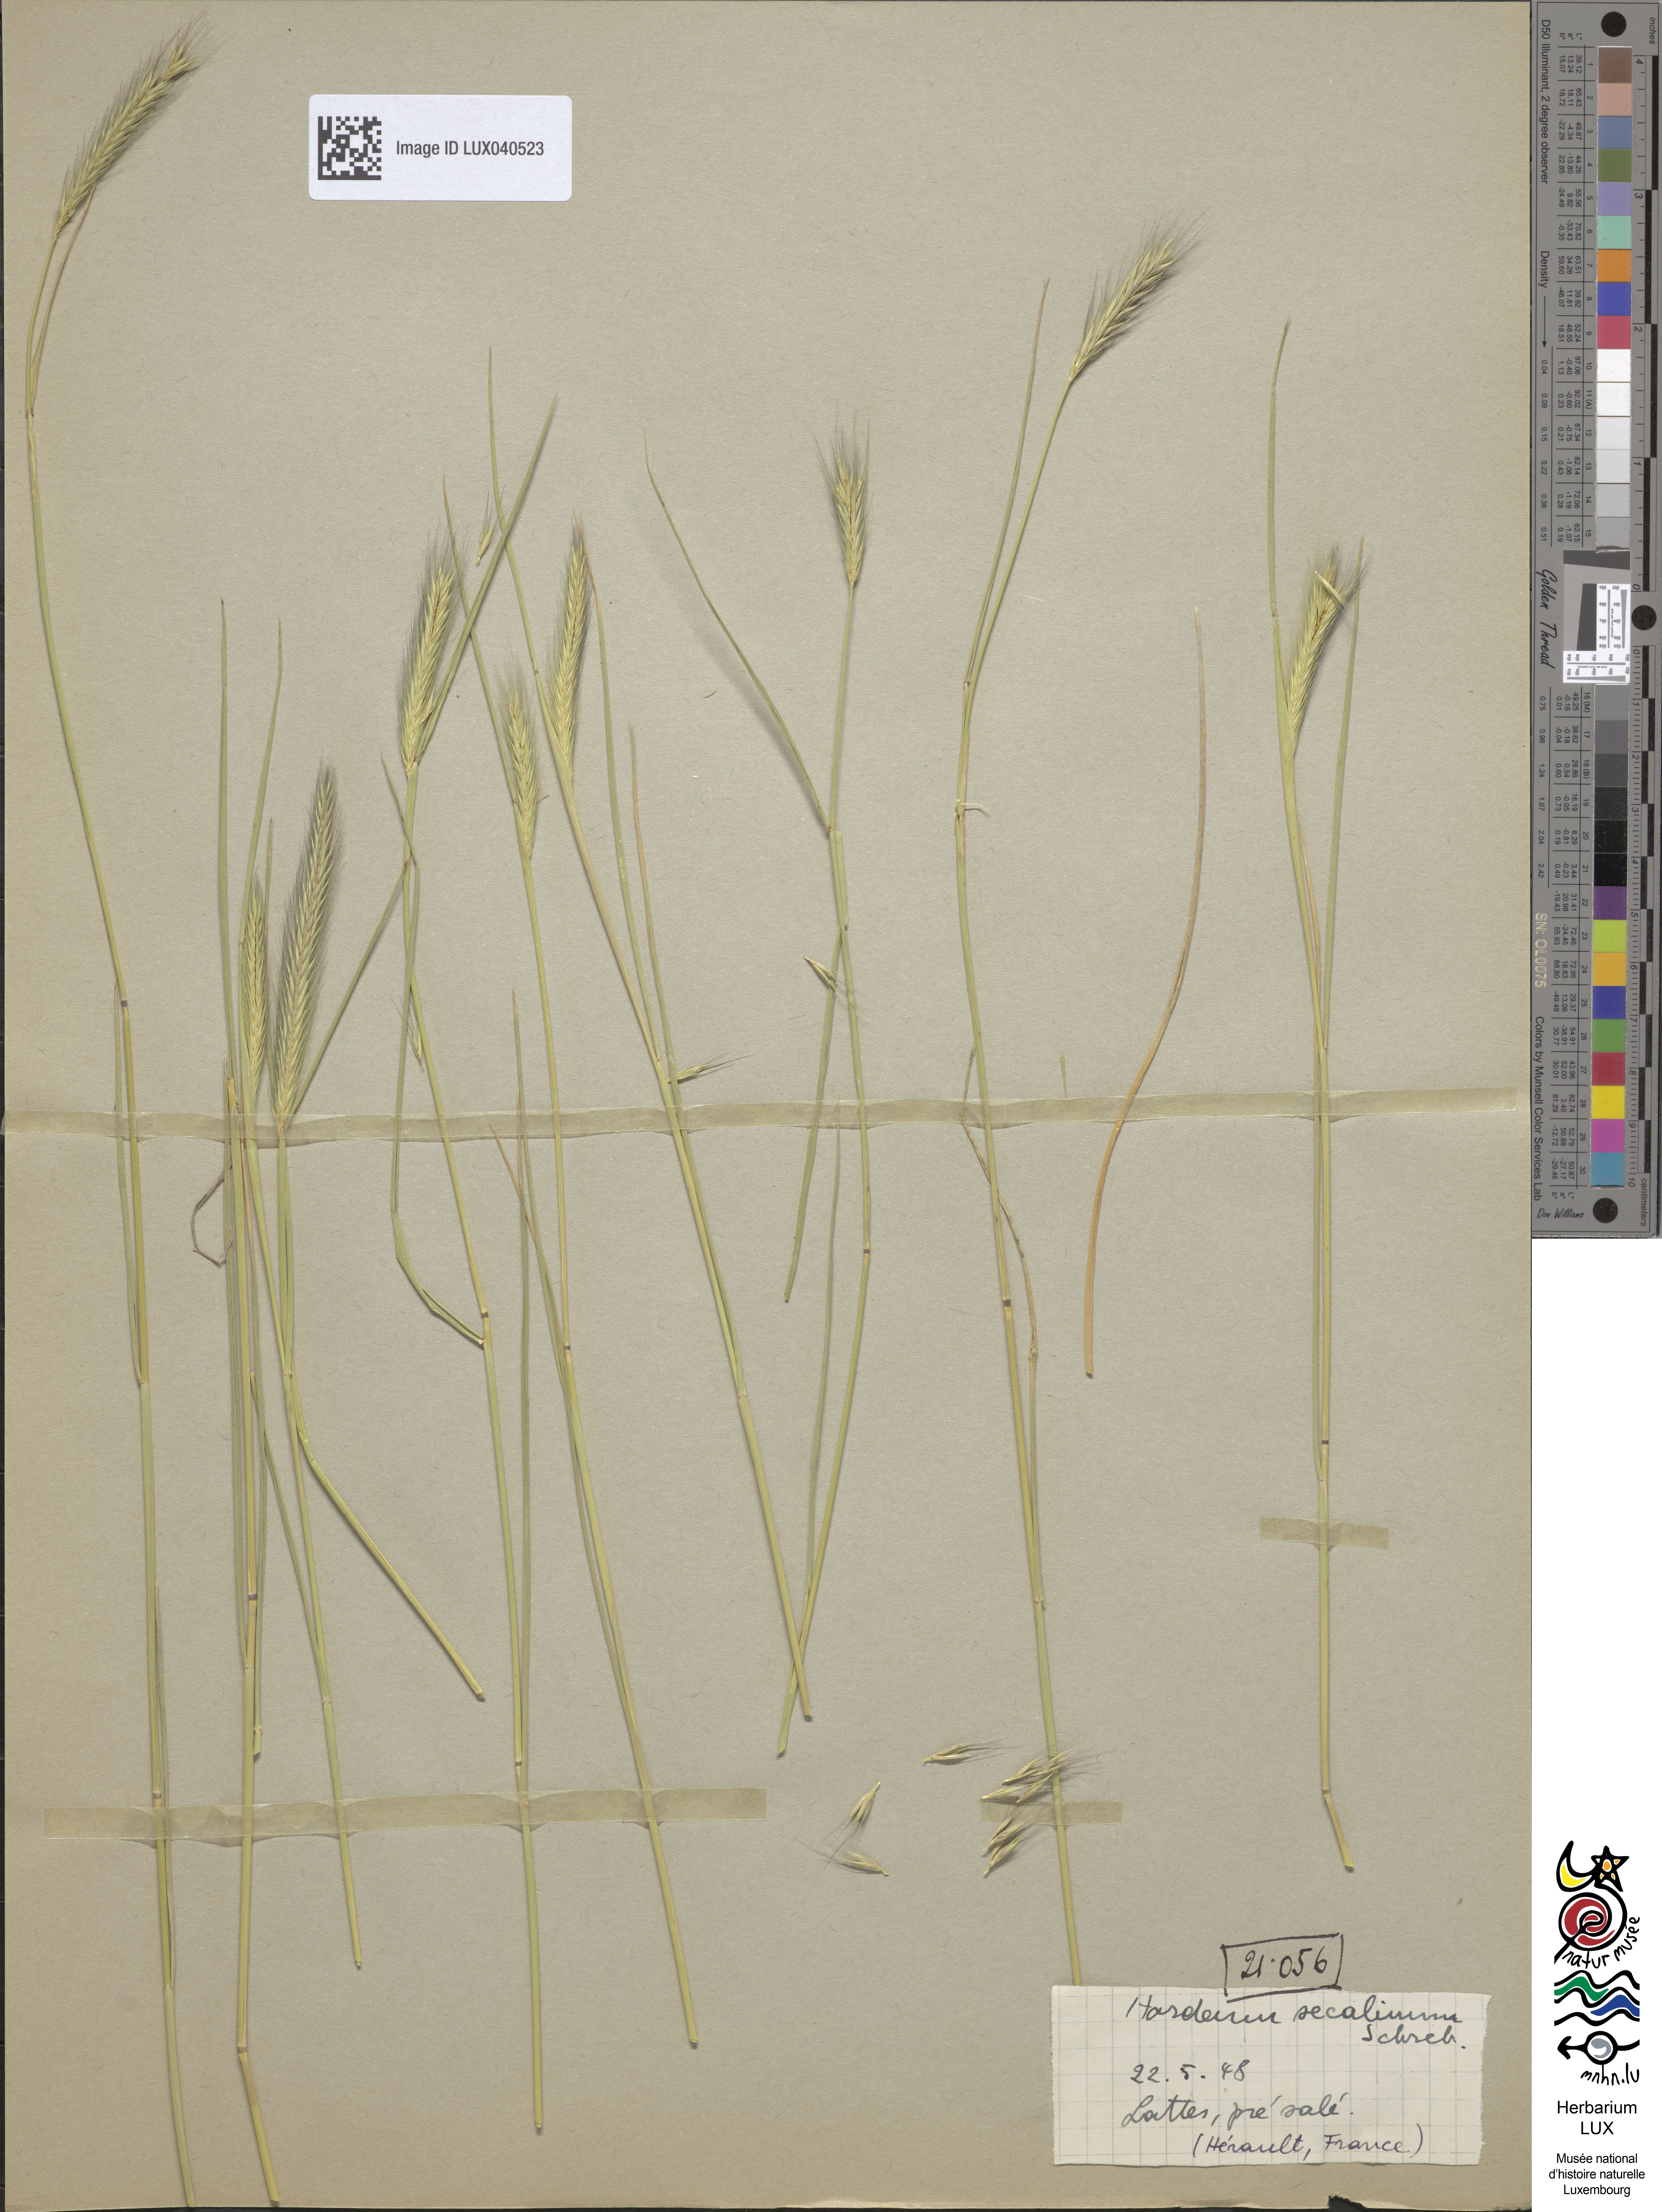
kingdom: Plantae
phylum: Tracheophyta
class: Liliopsida
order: Poales
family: Poaceae
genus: Hordeum
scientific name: Hordeum secalinum
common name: Meadow barley
